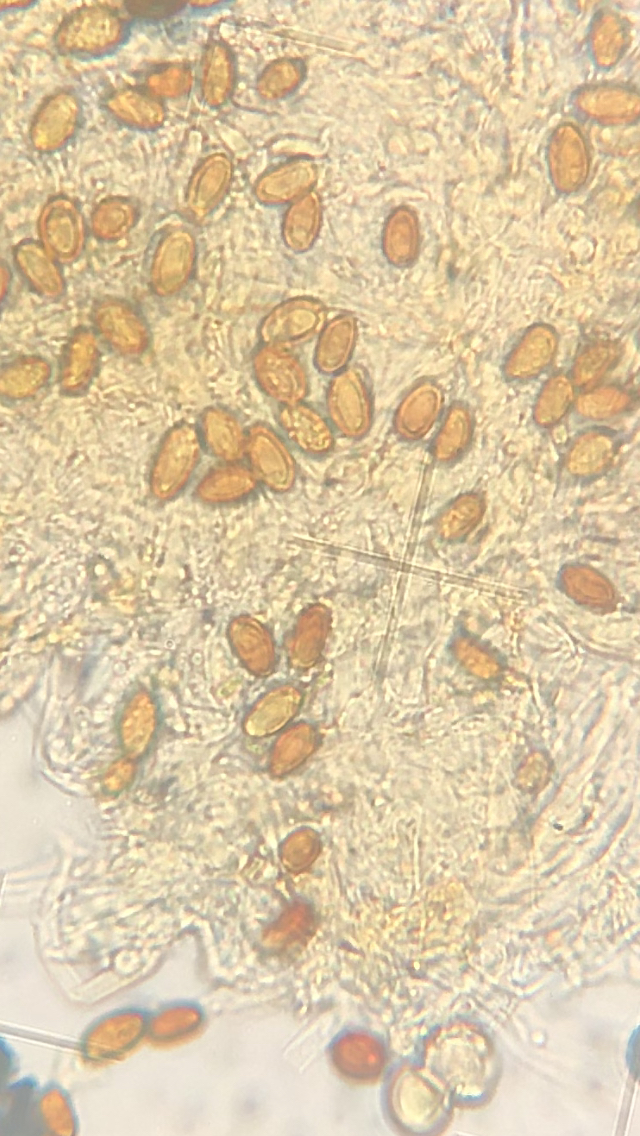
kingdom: Fungi
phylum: Basidiomycota
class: Agaricomycetes
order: Boletales
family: Coniophoraceae
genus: Coniophora
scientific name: Coniophora
